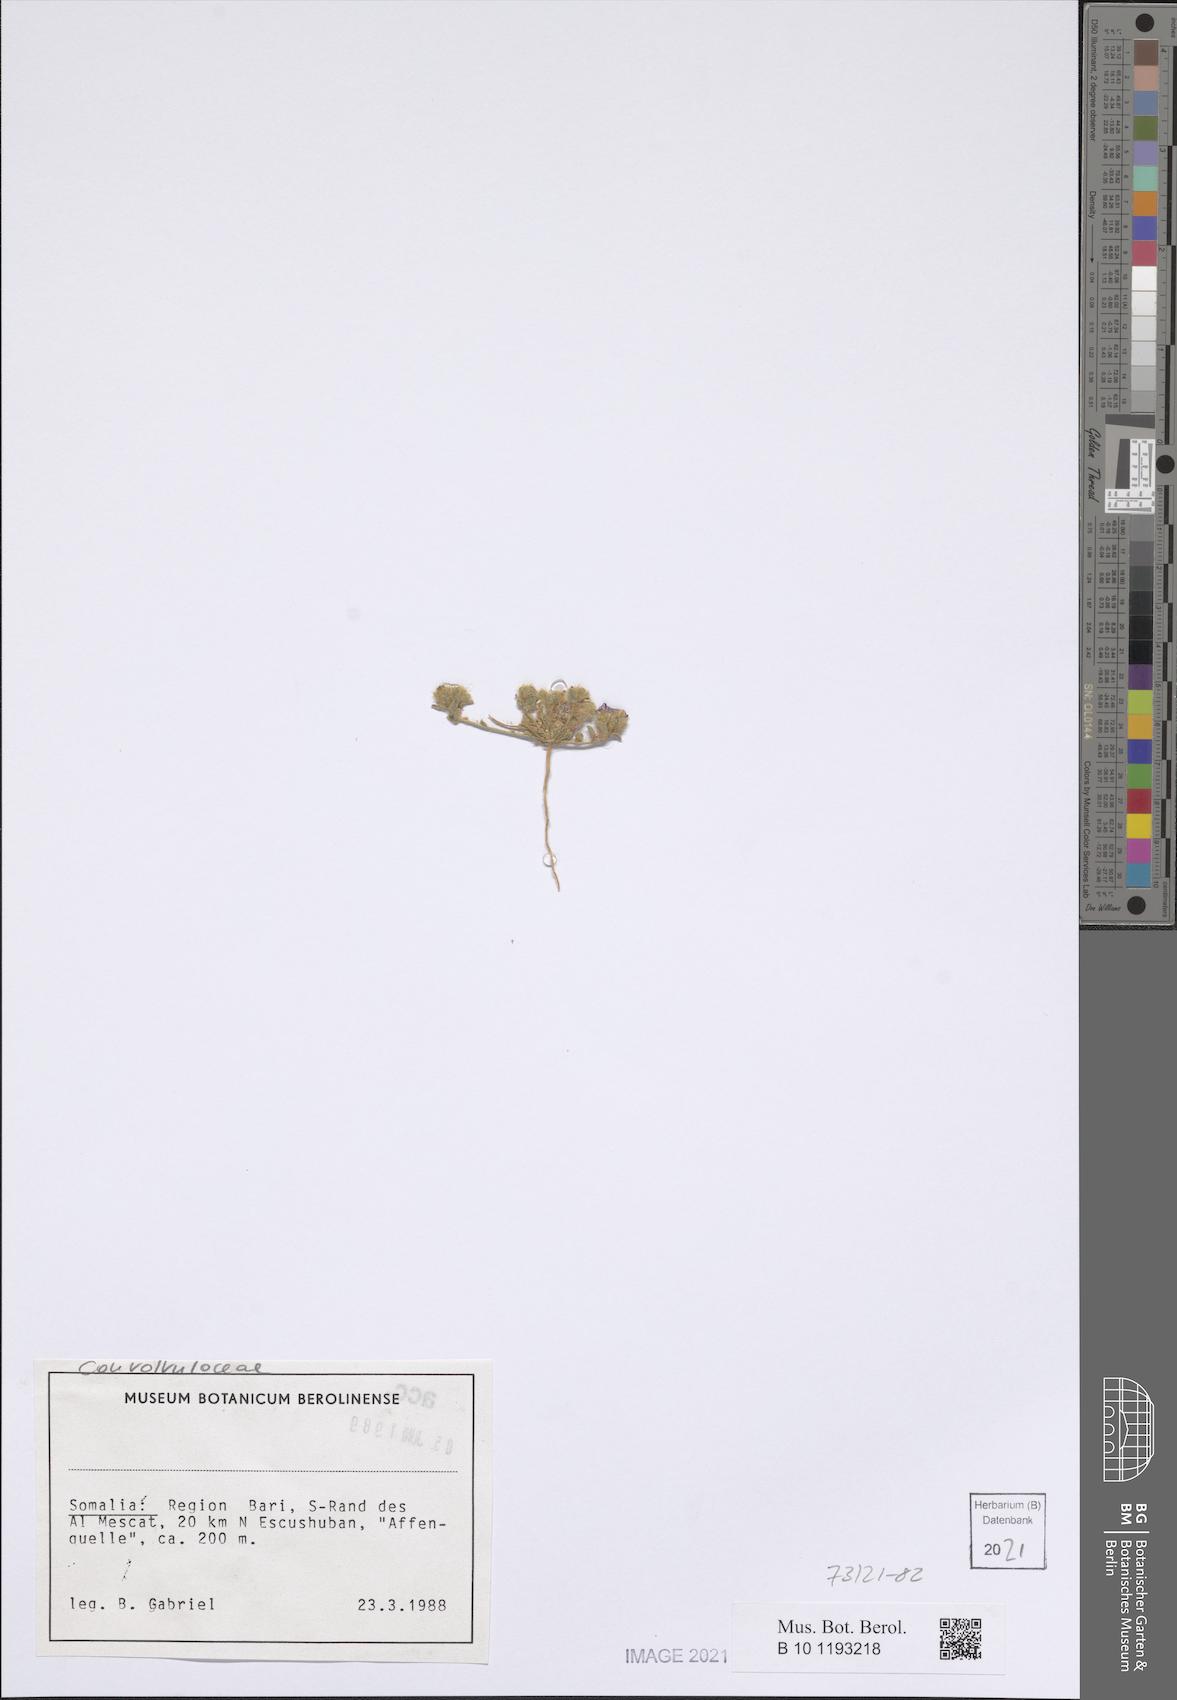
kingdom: Plantae
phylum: Tracheophyta
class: Magnoliopsida
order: Solanales
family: Convolvulaceae
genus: Convolvulus
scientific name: Convolvulus rhyniospermus
